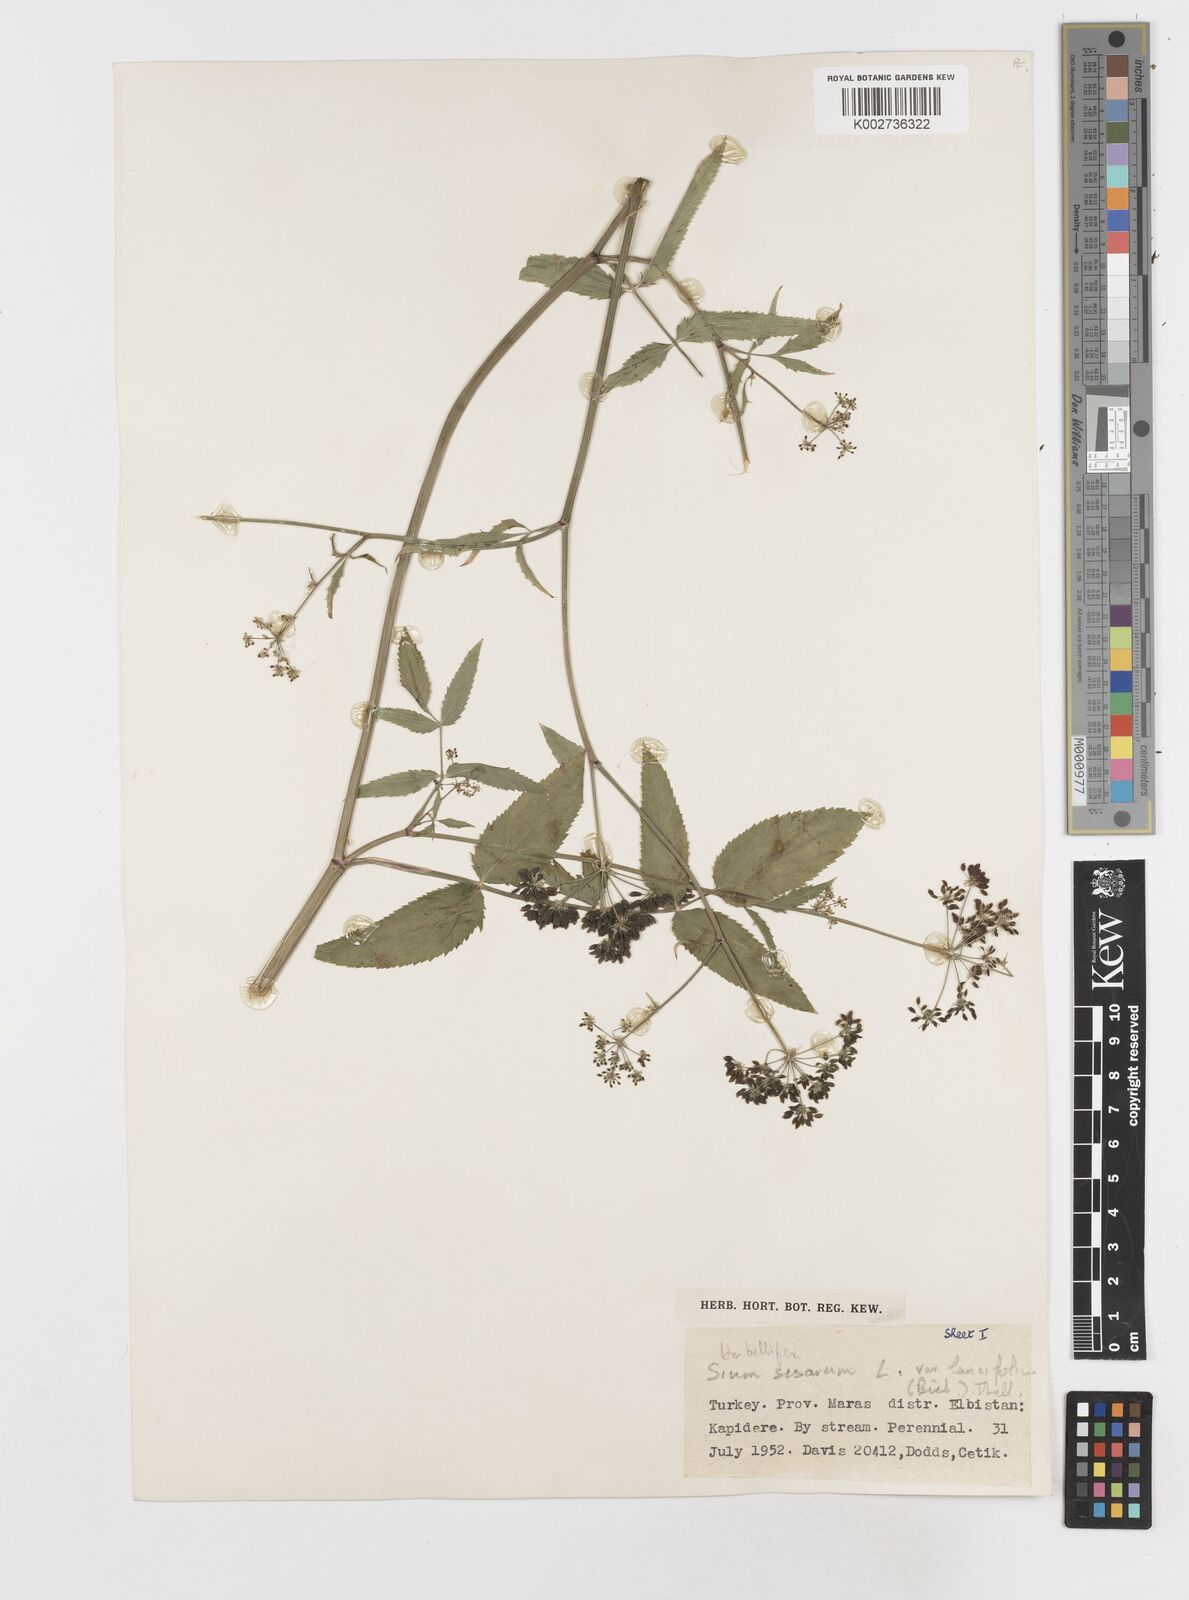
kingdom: Plantae
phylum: Tracheophyta
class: Magnoliopsida
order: Apiales
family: Apiaceae
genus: Sium
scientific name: Sium sisarum
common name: Skirret
